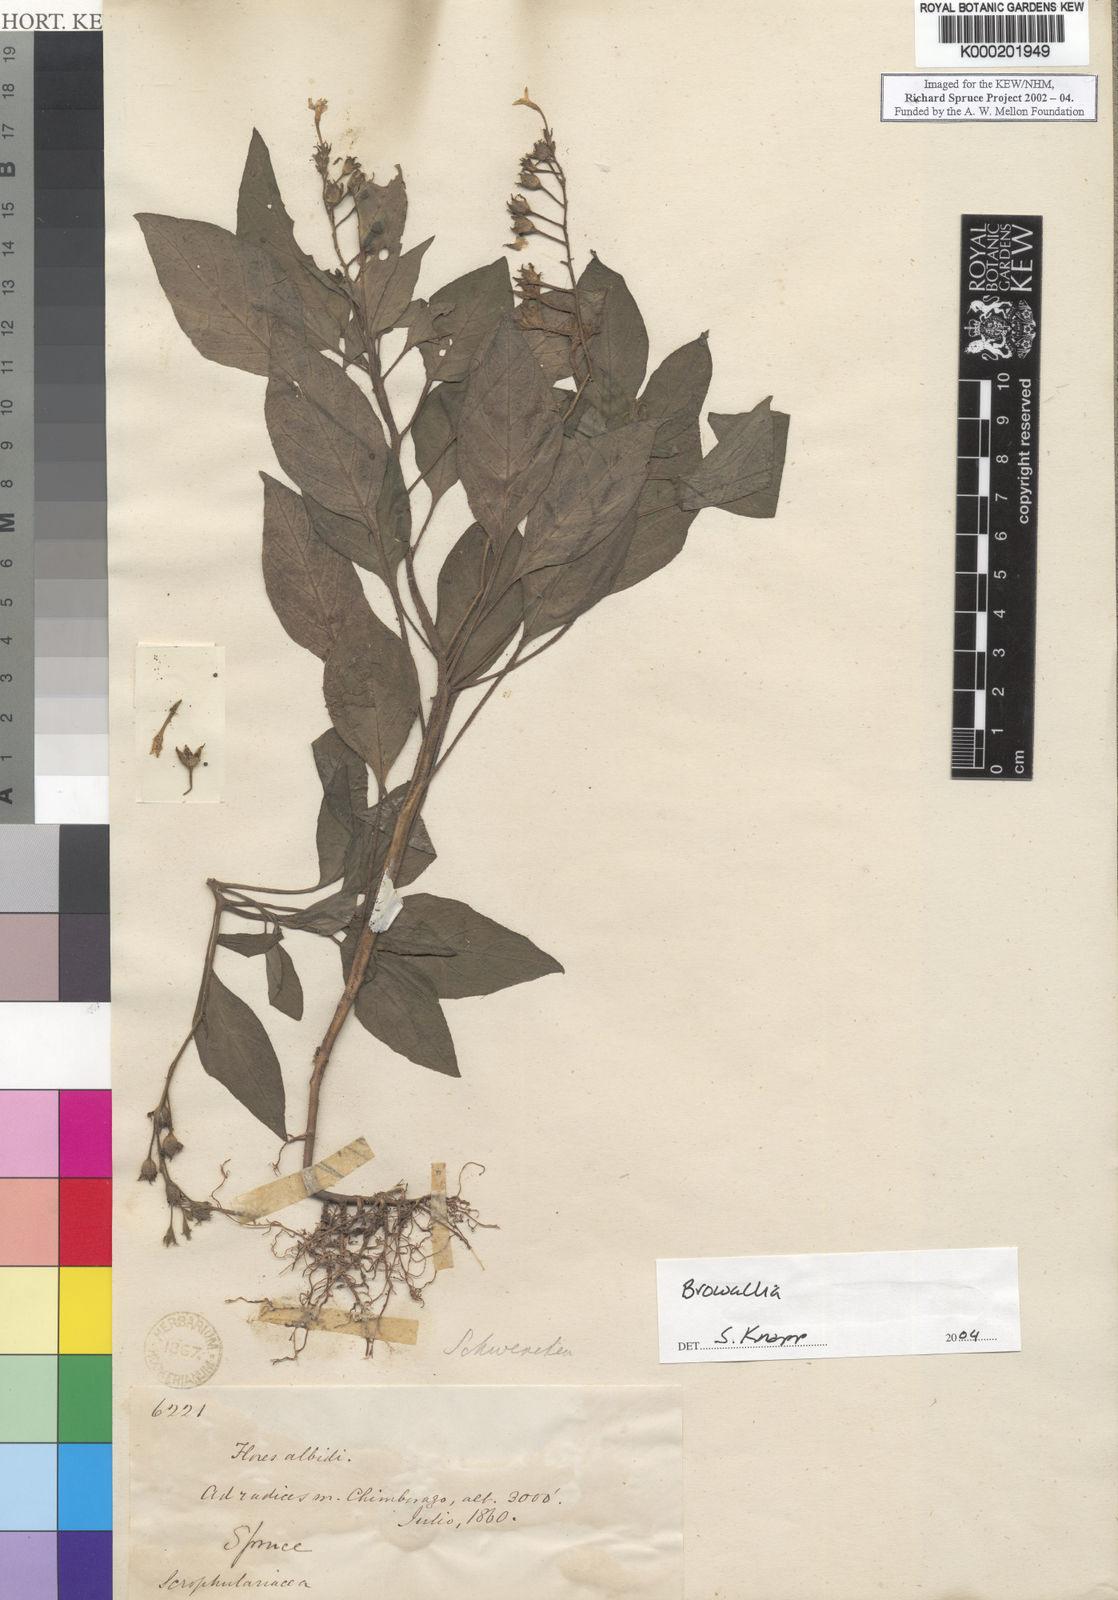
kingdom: Plantae
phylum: Tracheophyta
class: Magnoliopsida
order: Solanales
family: Solanaceae
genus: Browallia
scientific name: Browallia
